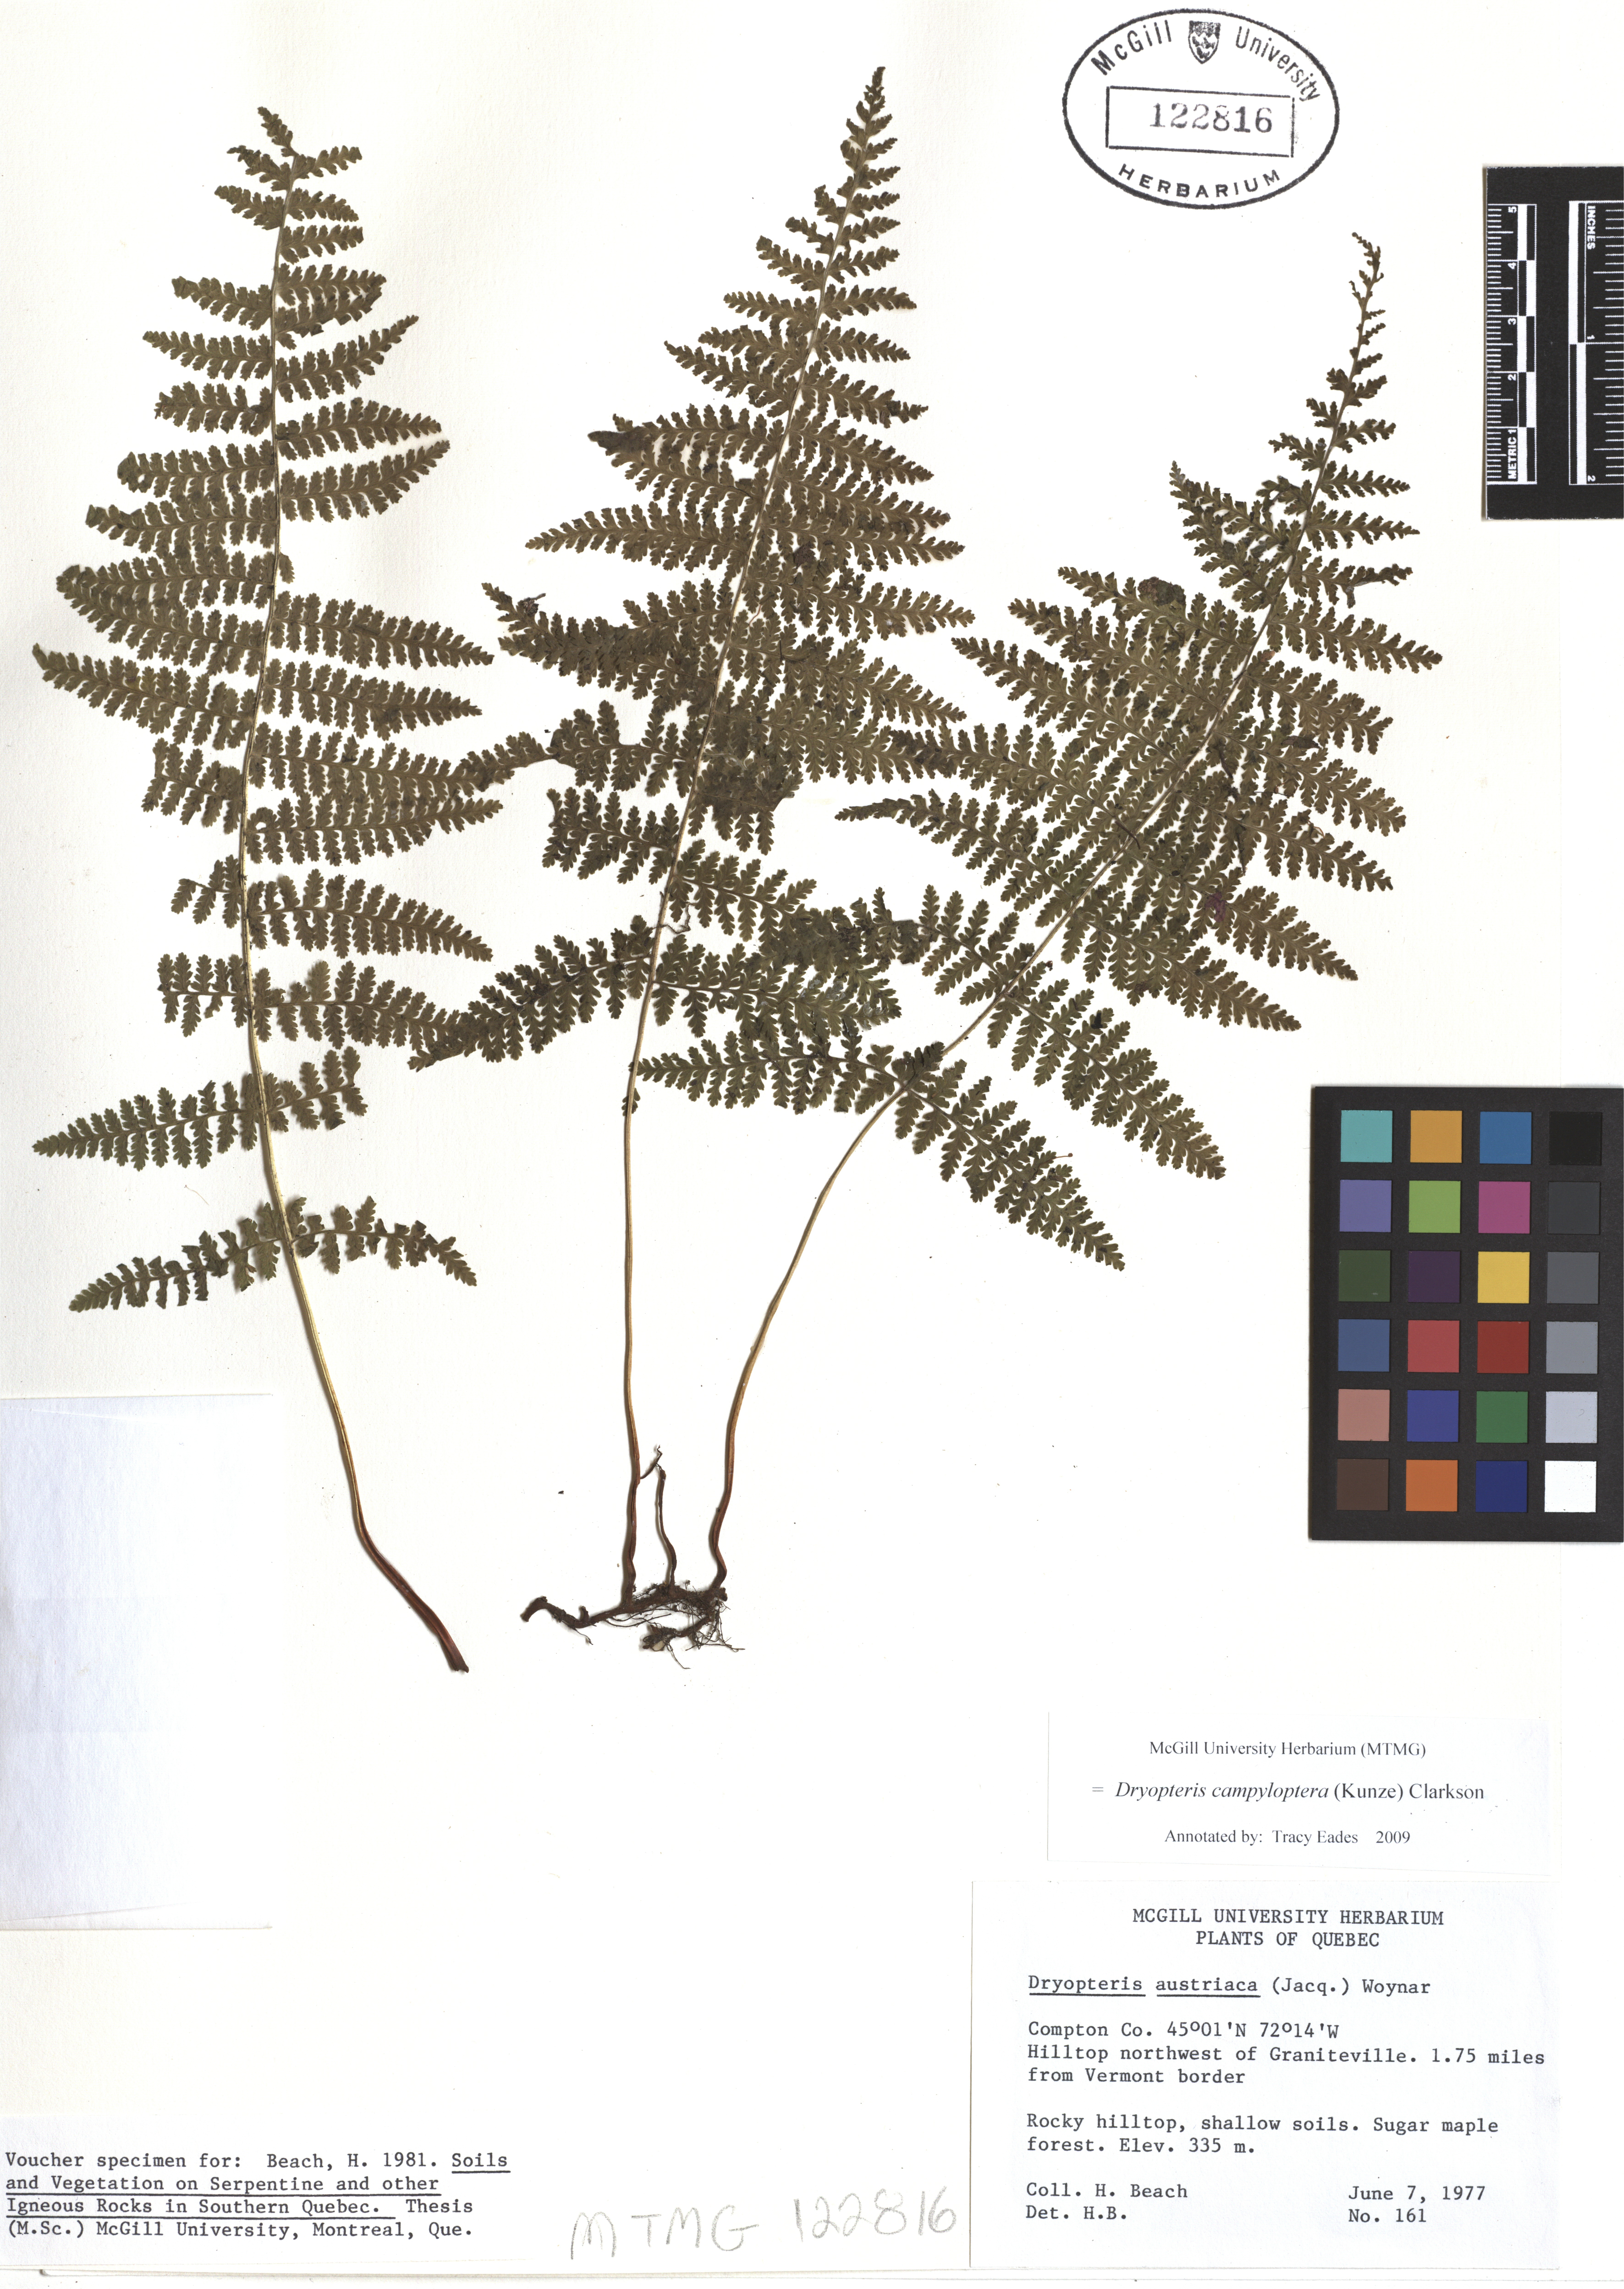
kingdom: Plantae
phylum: Tracheophyta
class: Polypodiopsida
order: Polypodiales
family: Dryopteridaceae
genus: Dryopteris
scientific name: Dryopteris campyloptera
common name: Mountain wood fern
